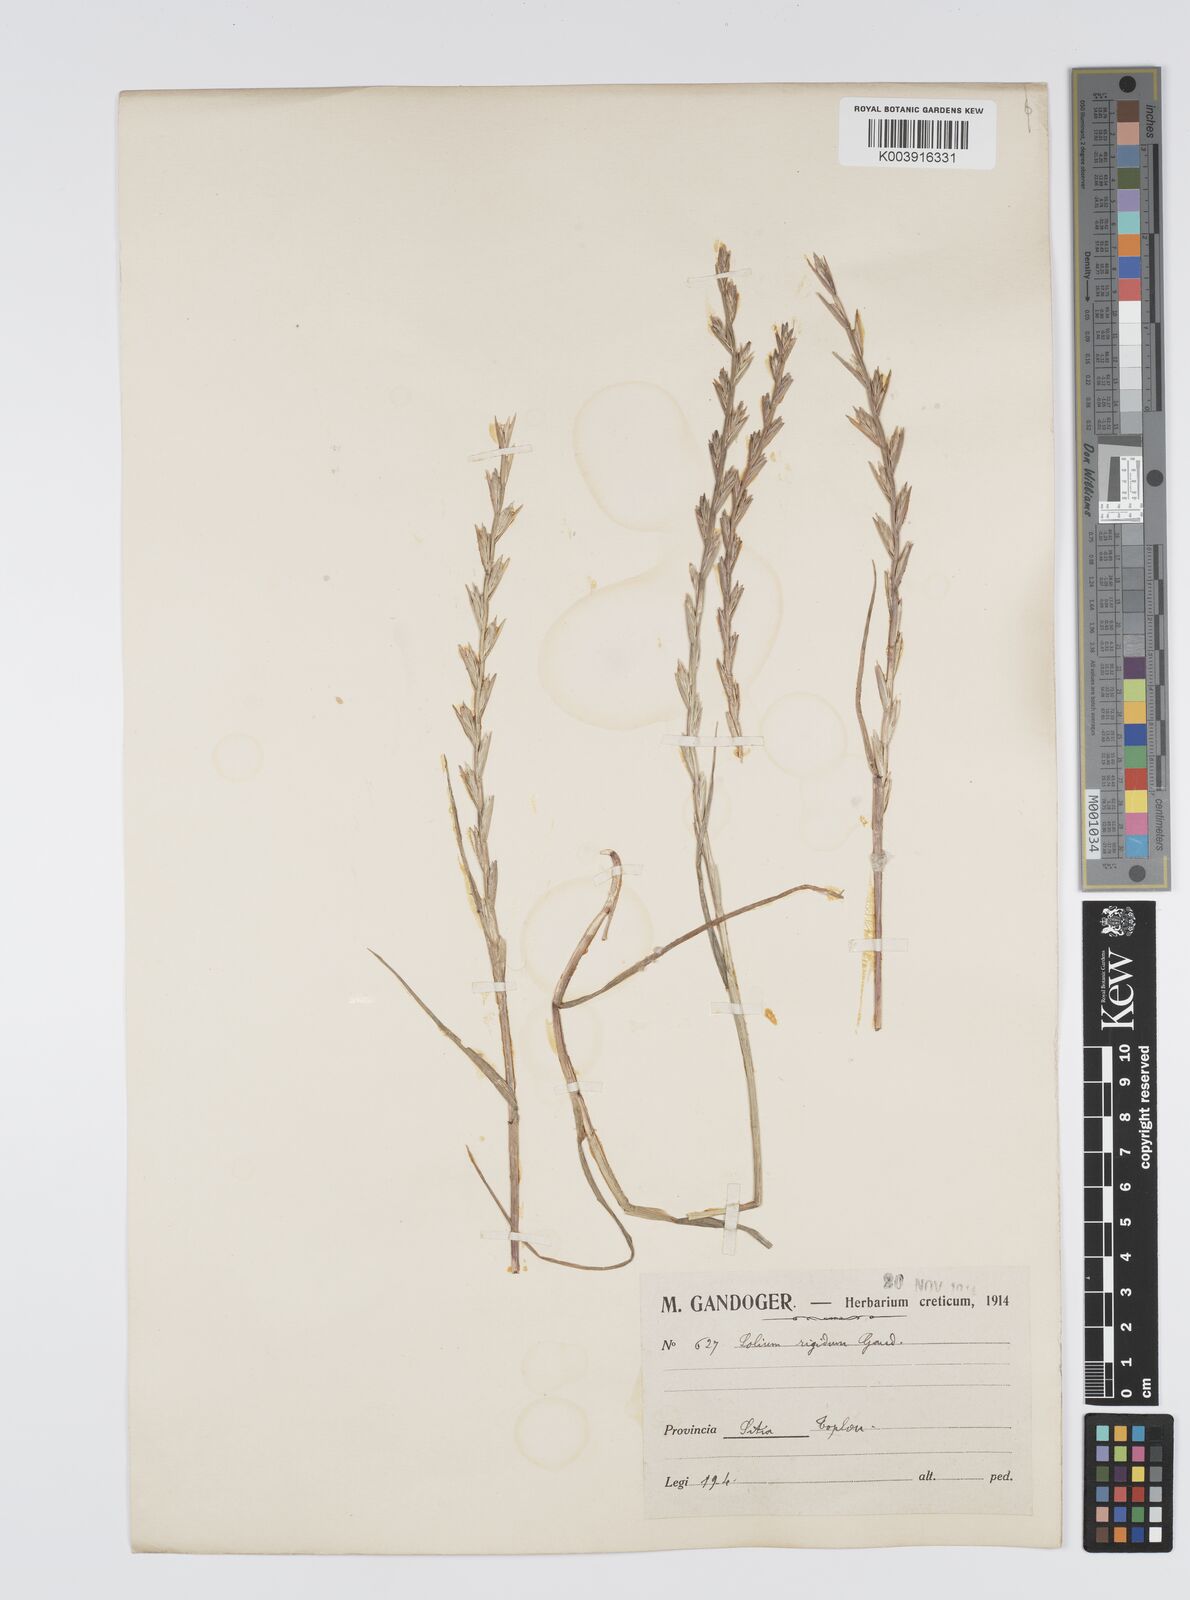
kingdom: Plantae
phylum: Tracheophyta
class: Liliopsida
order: Poales
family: Poaceae
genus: Lolium
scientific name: Lolium rigidum
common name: Wimmera ryegrass
